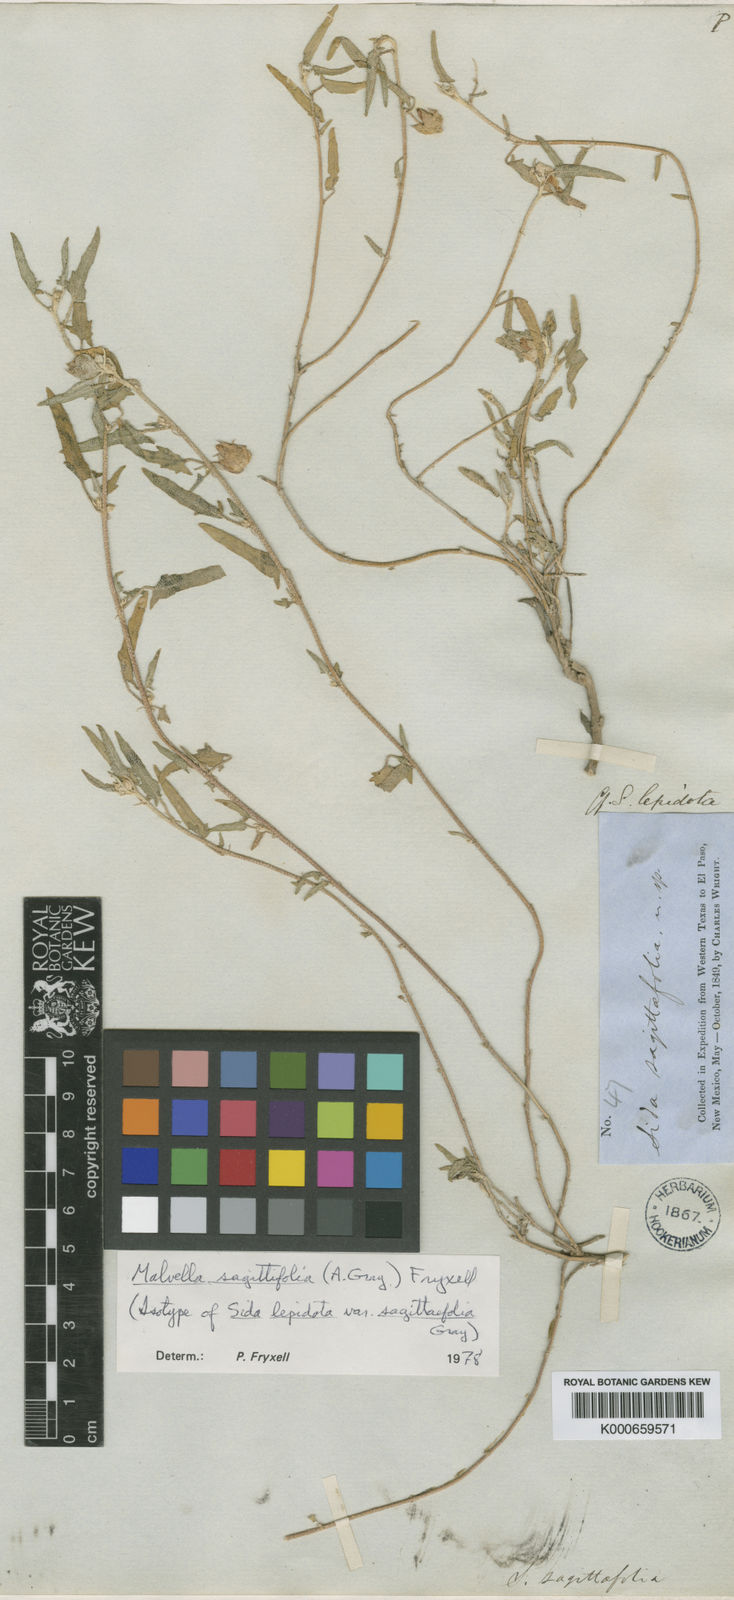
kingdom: Plantae
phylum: Tracheophyta
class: Magnoliopsida
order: Malvales
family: Malvaceae
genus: Malvella
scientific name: Malvella lepidota
